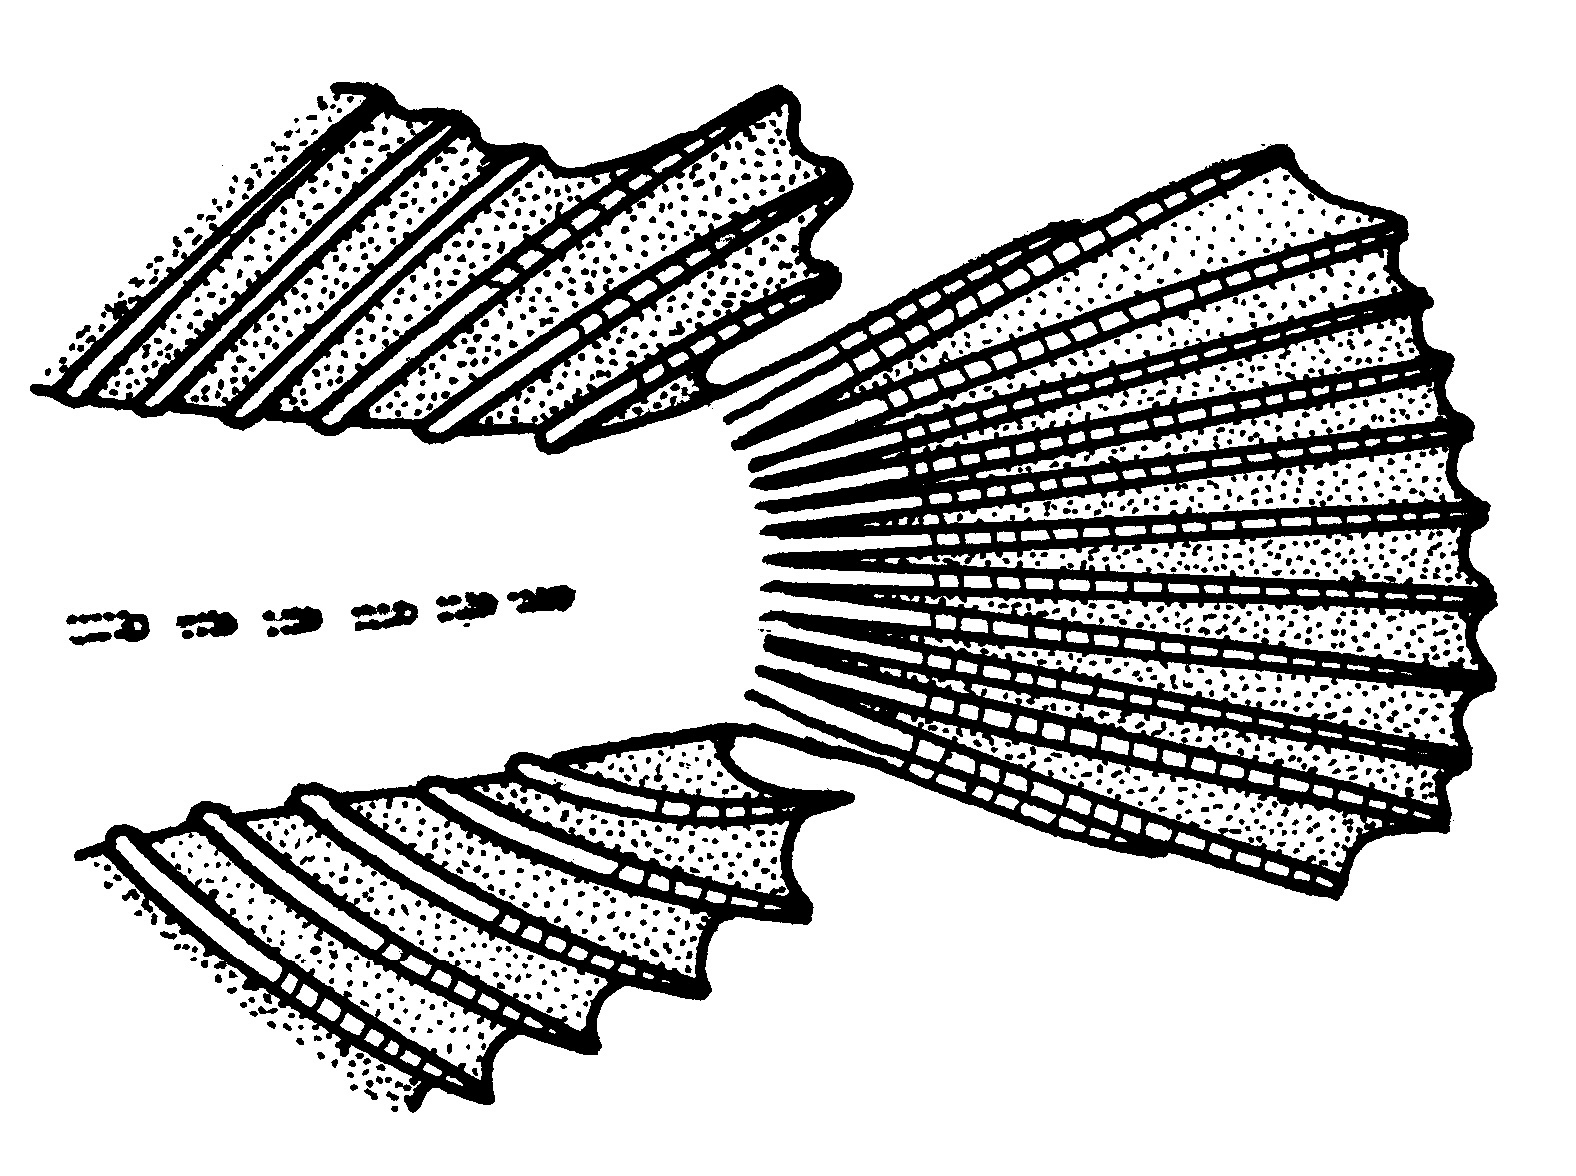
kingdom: Animalia
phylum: Chordata
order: Perciformes
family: Clinidae
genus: Blennophis
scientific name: Blennophis anguillaris
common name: Snaky klipfish
